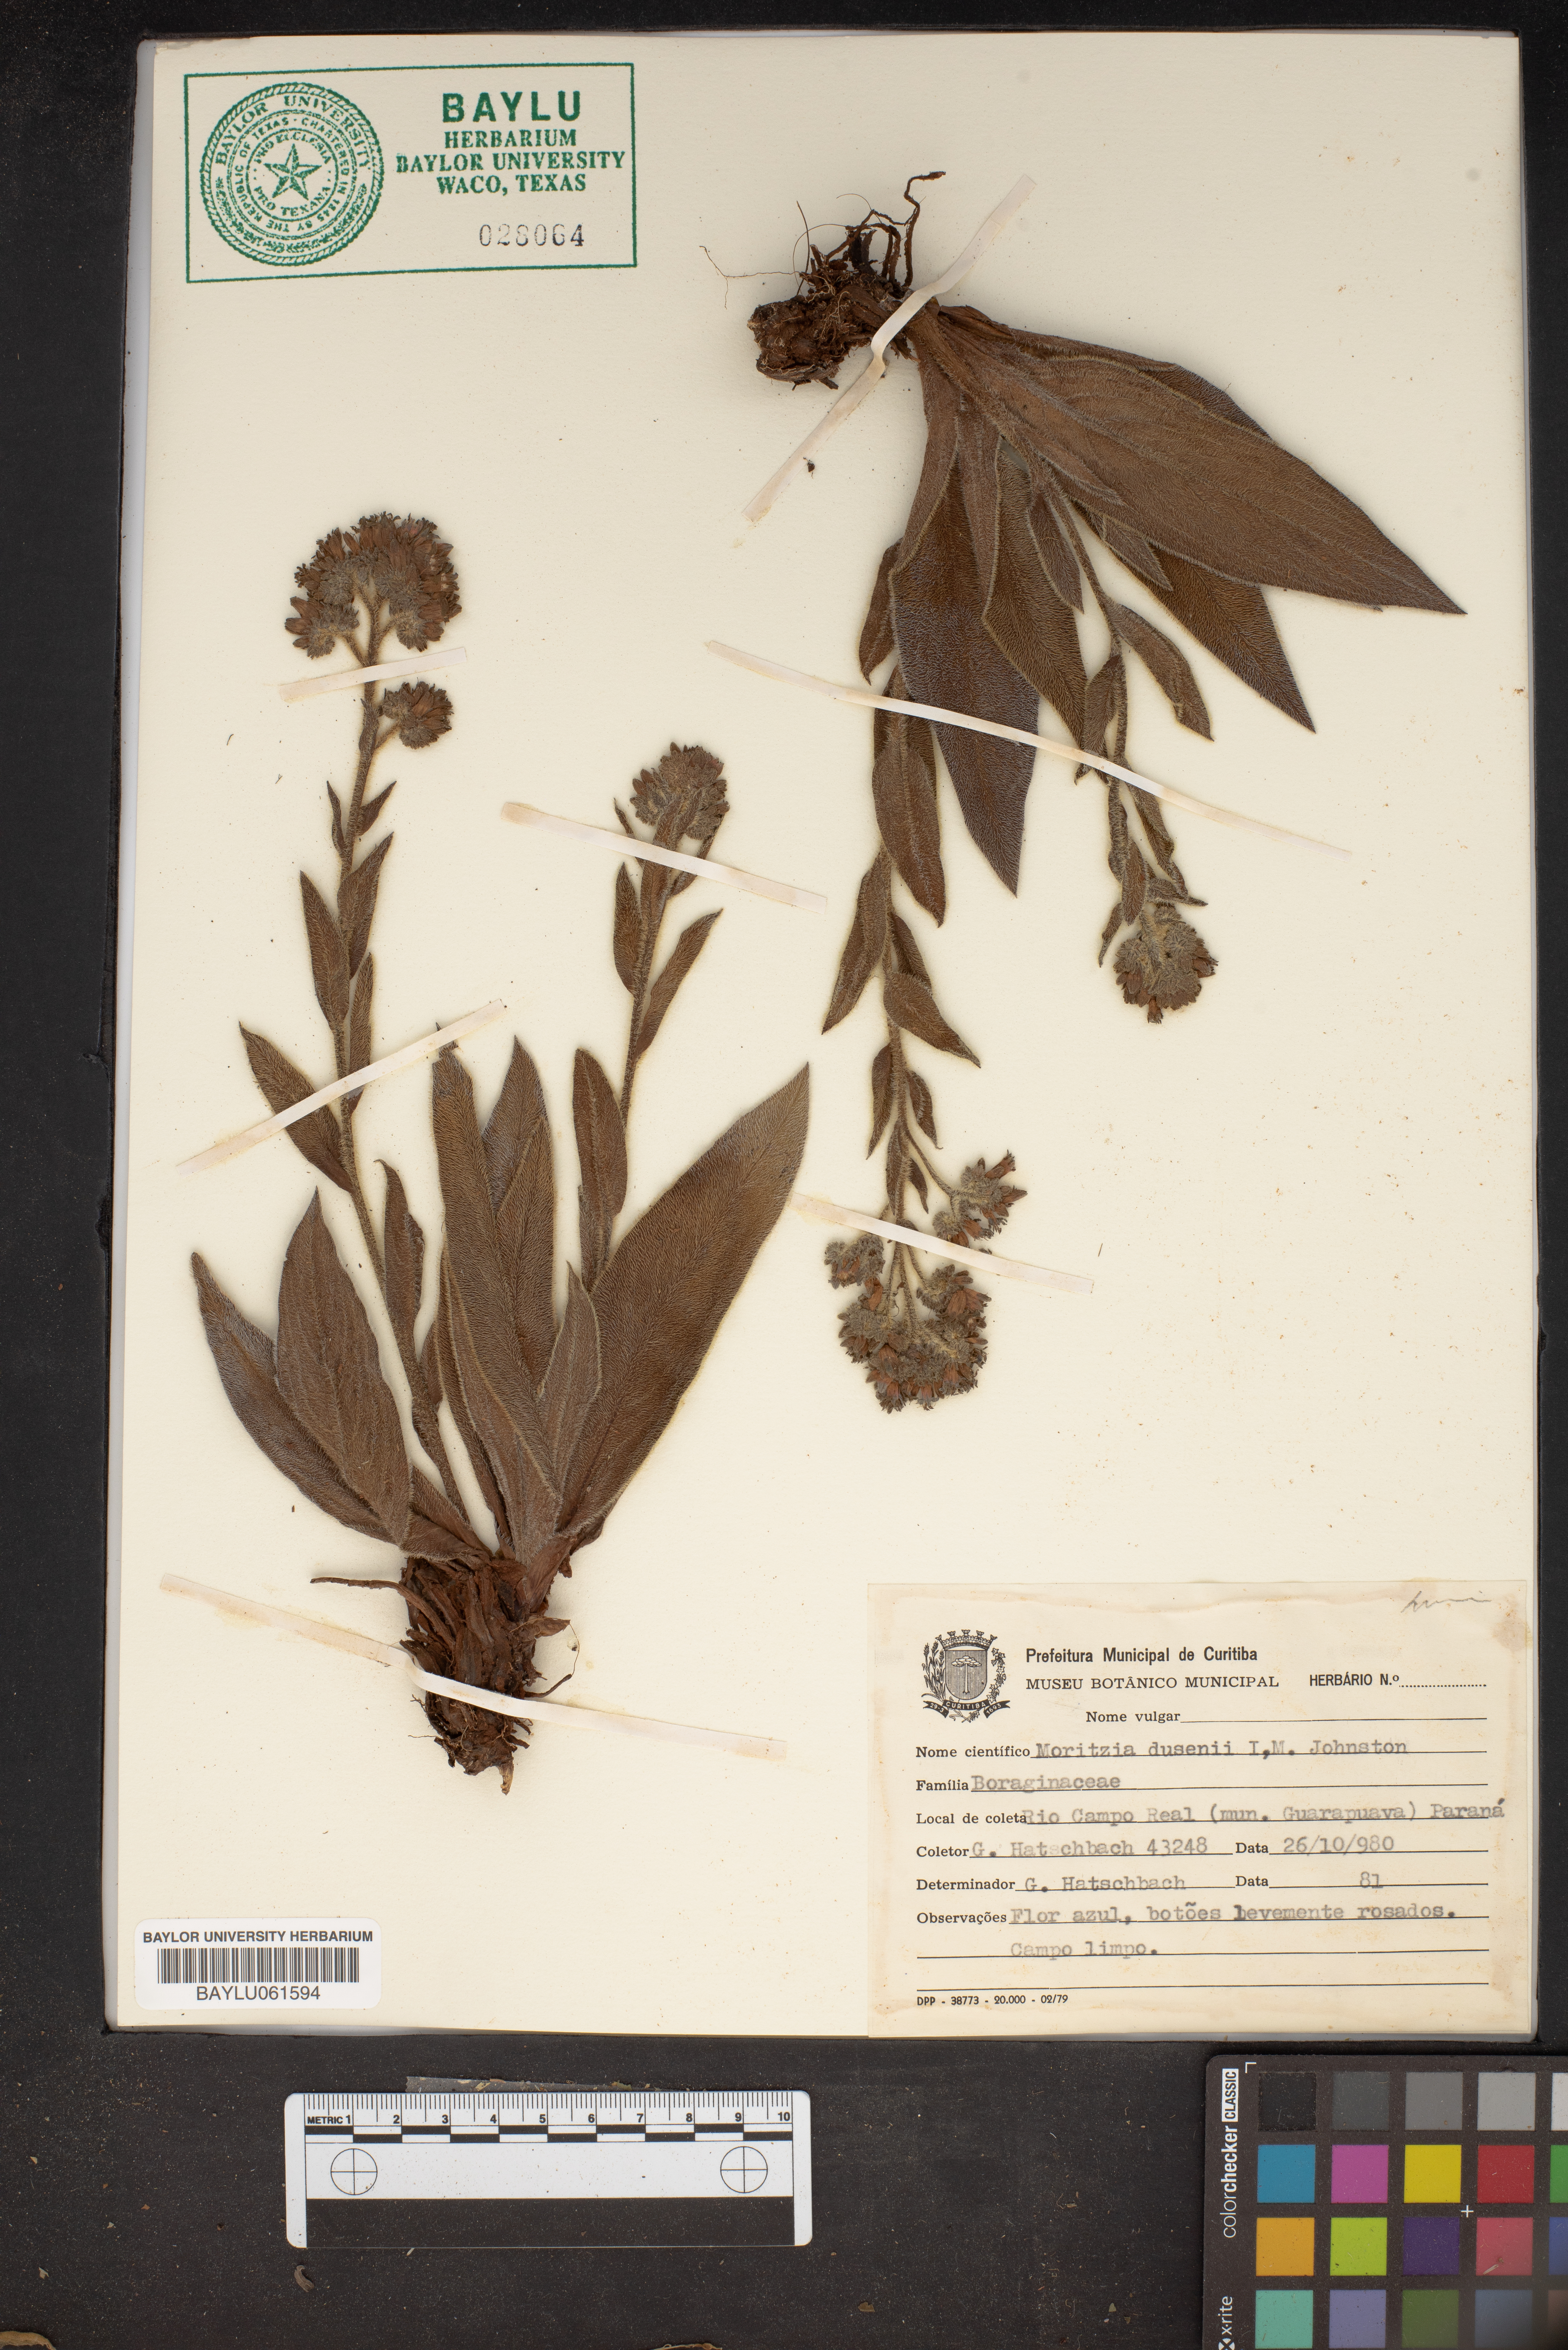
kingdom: Plantae
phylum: Tracheophyta
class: Magnoliopsida
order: Boraginales
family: Boraginaceae
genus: Moritzia
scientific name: Moritzia dusenii
